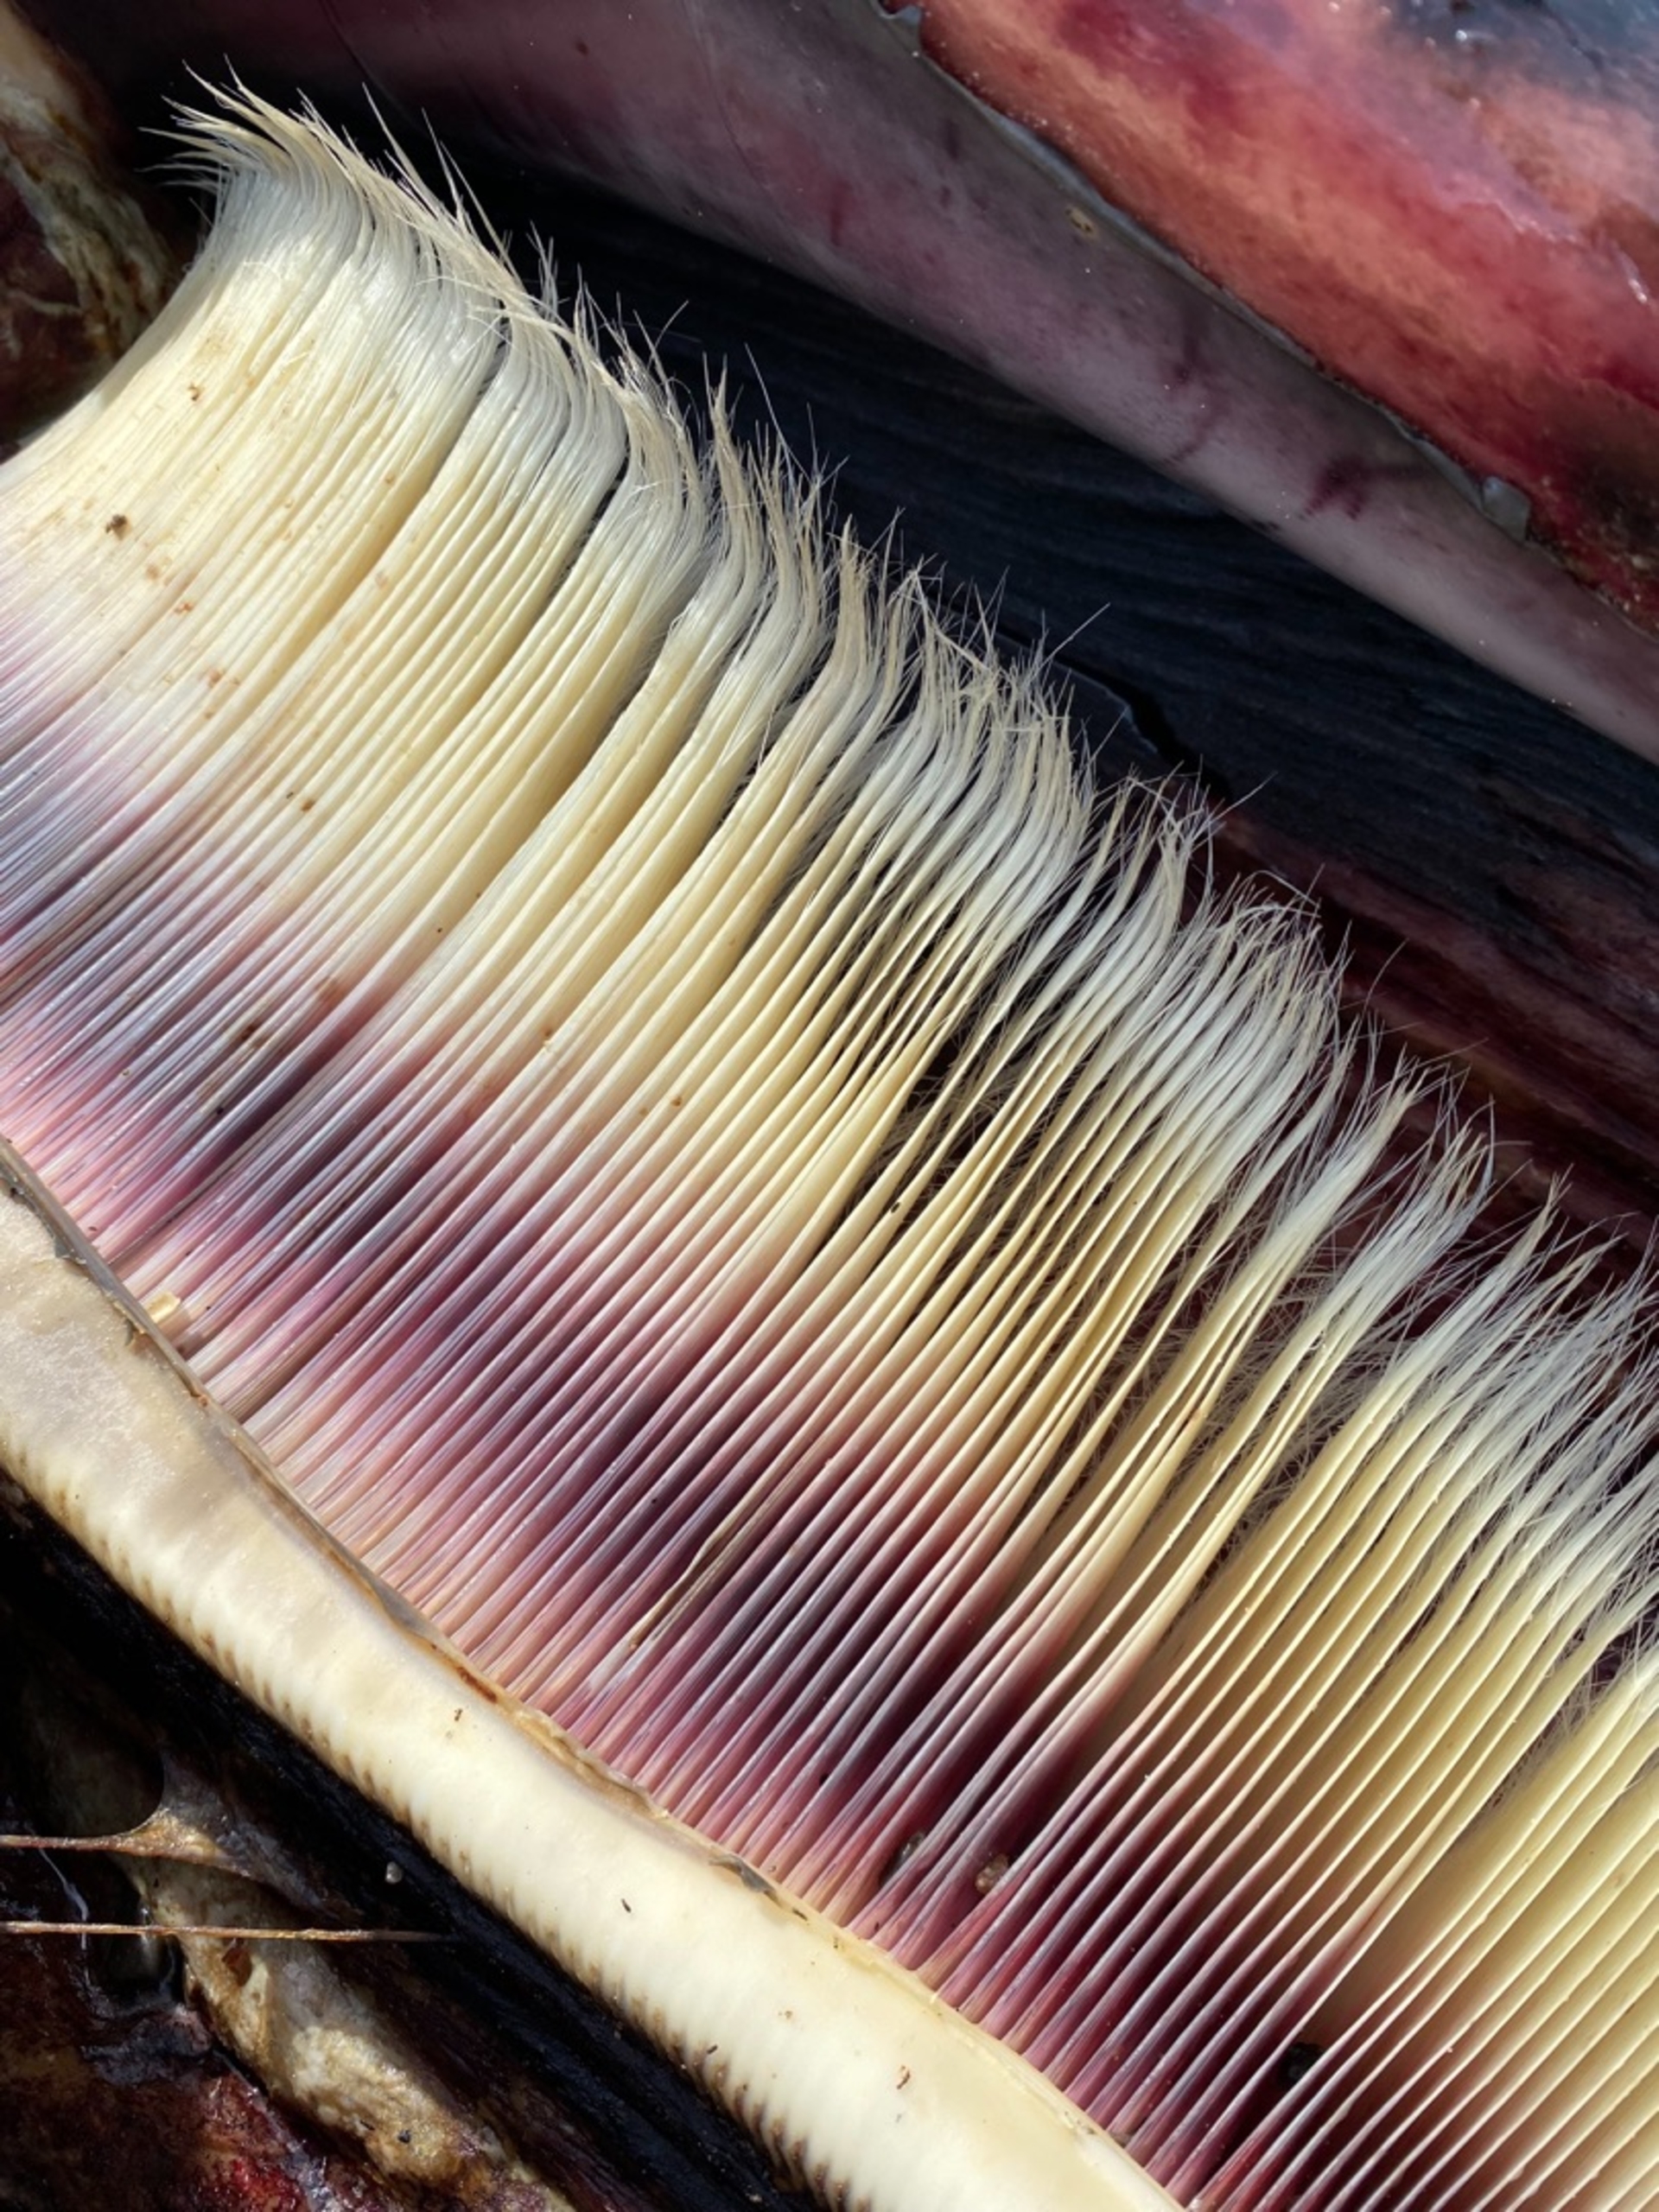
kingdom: Animalia
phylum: Chordata
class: Mammalia
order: Cetacea
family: Balaenopteridae
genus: Balaenoptera
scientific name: Balaenoptera acutorostrata
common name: Vågehval
